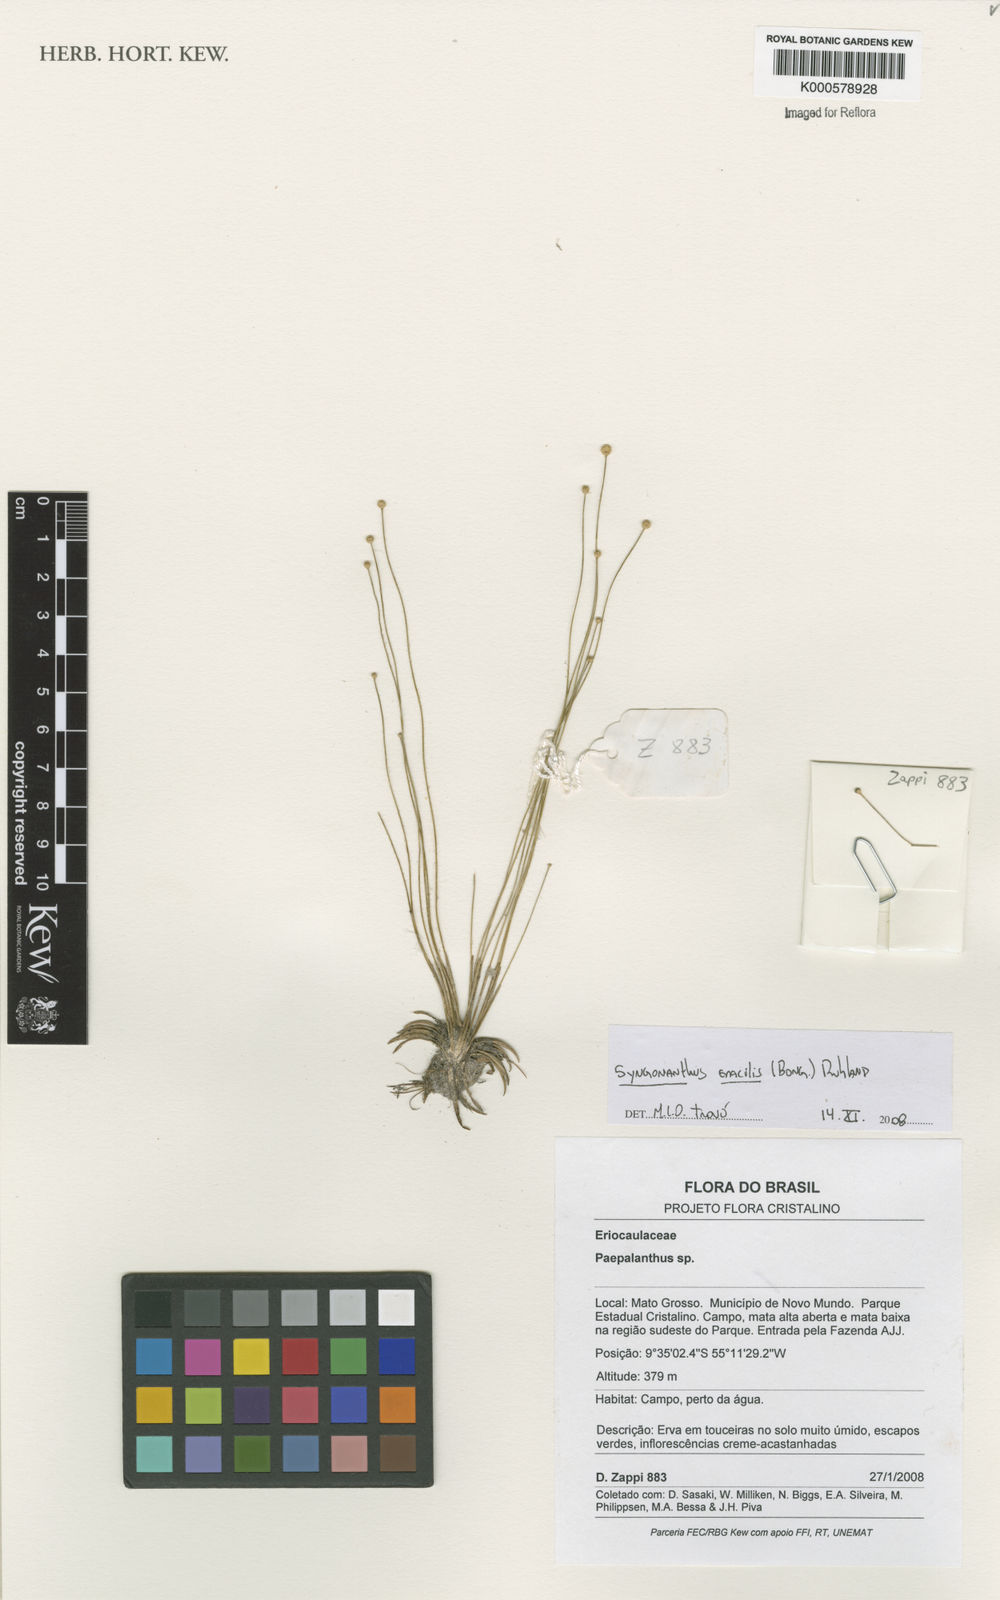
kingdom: Plantae
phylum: Tracheophyta
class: Liliopsida
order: Poales
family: Eriocaulaceae
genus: Syngonanthus
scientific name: Syngonanthus gracilis
